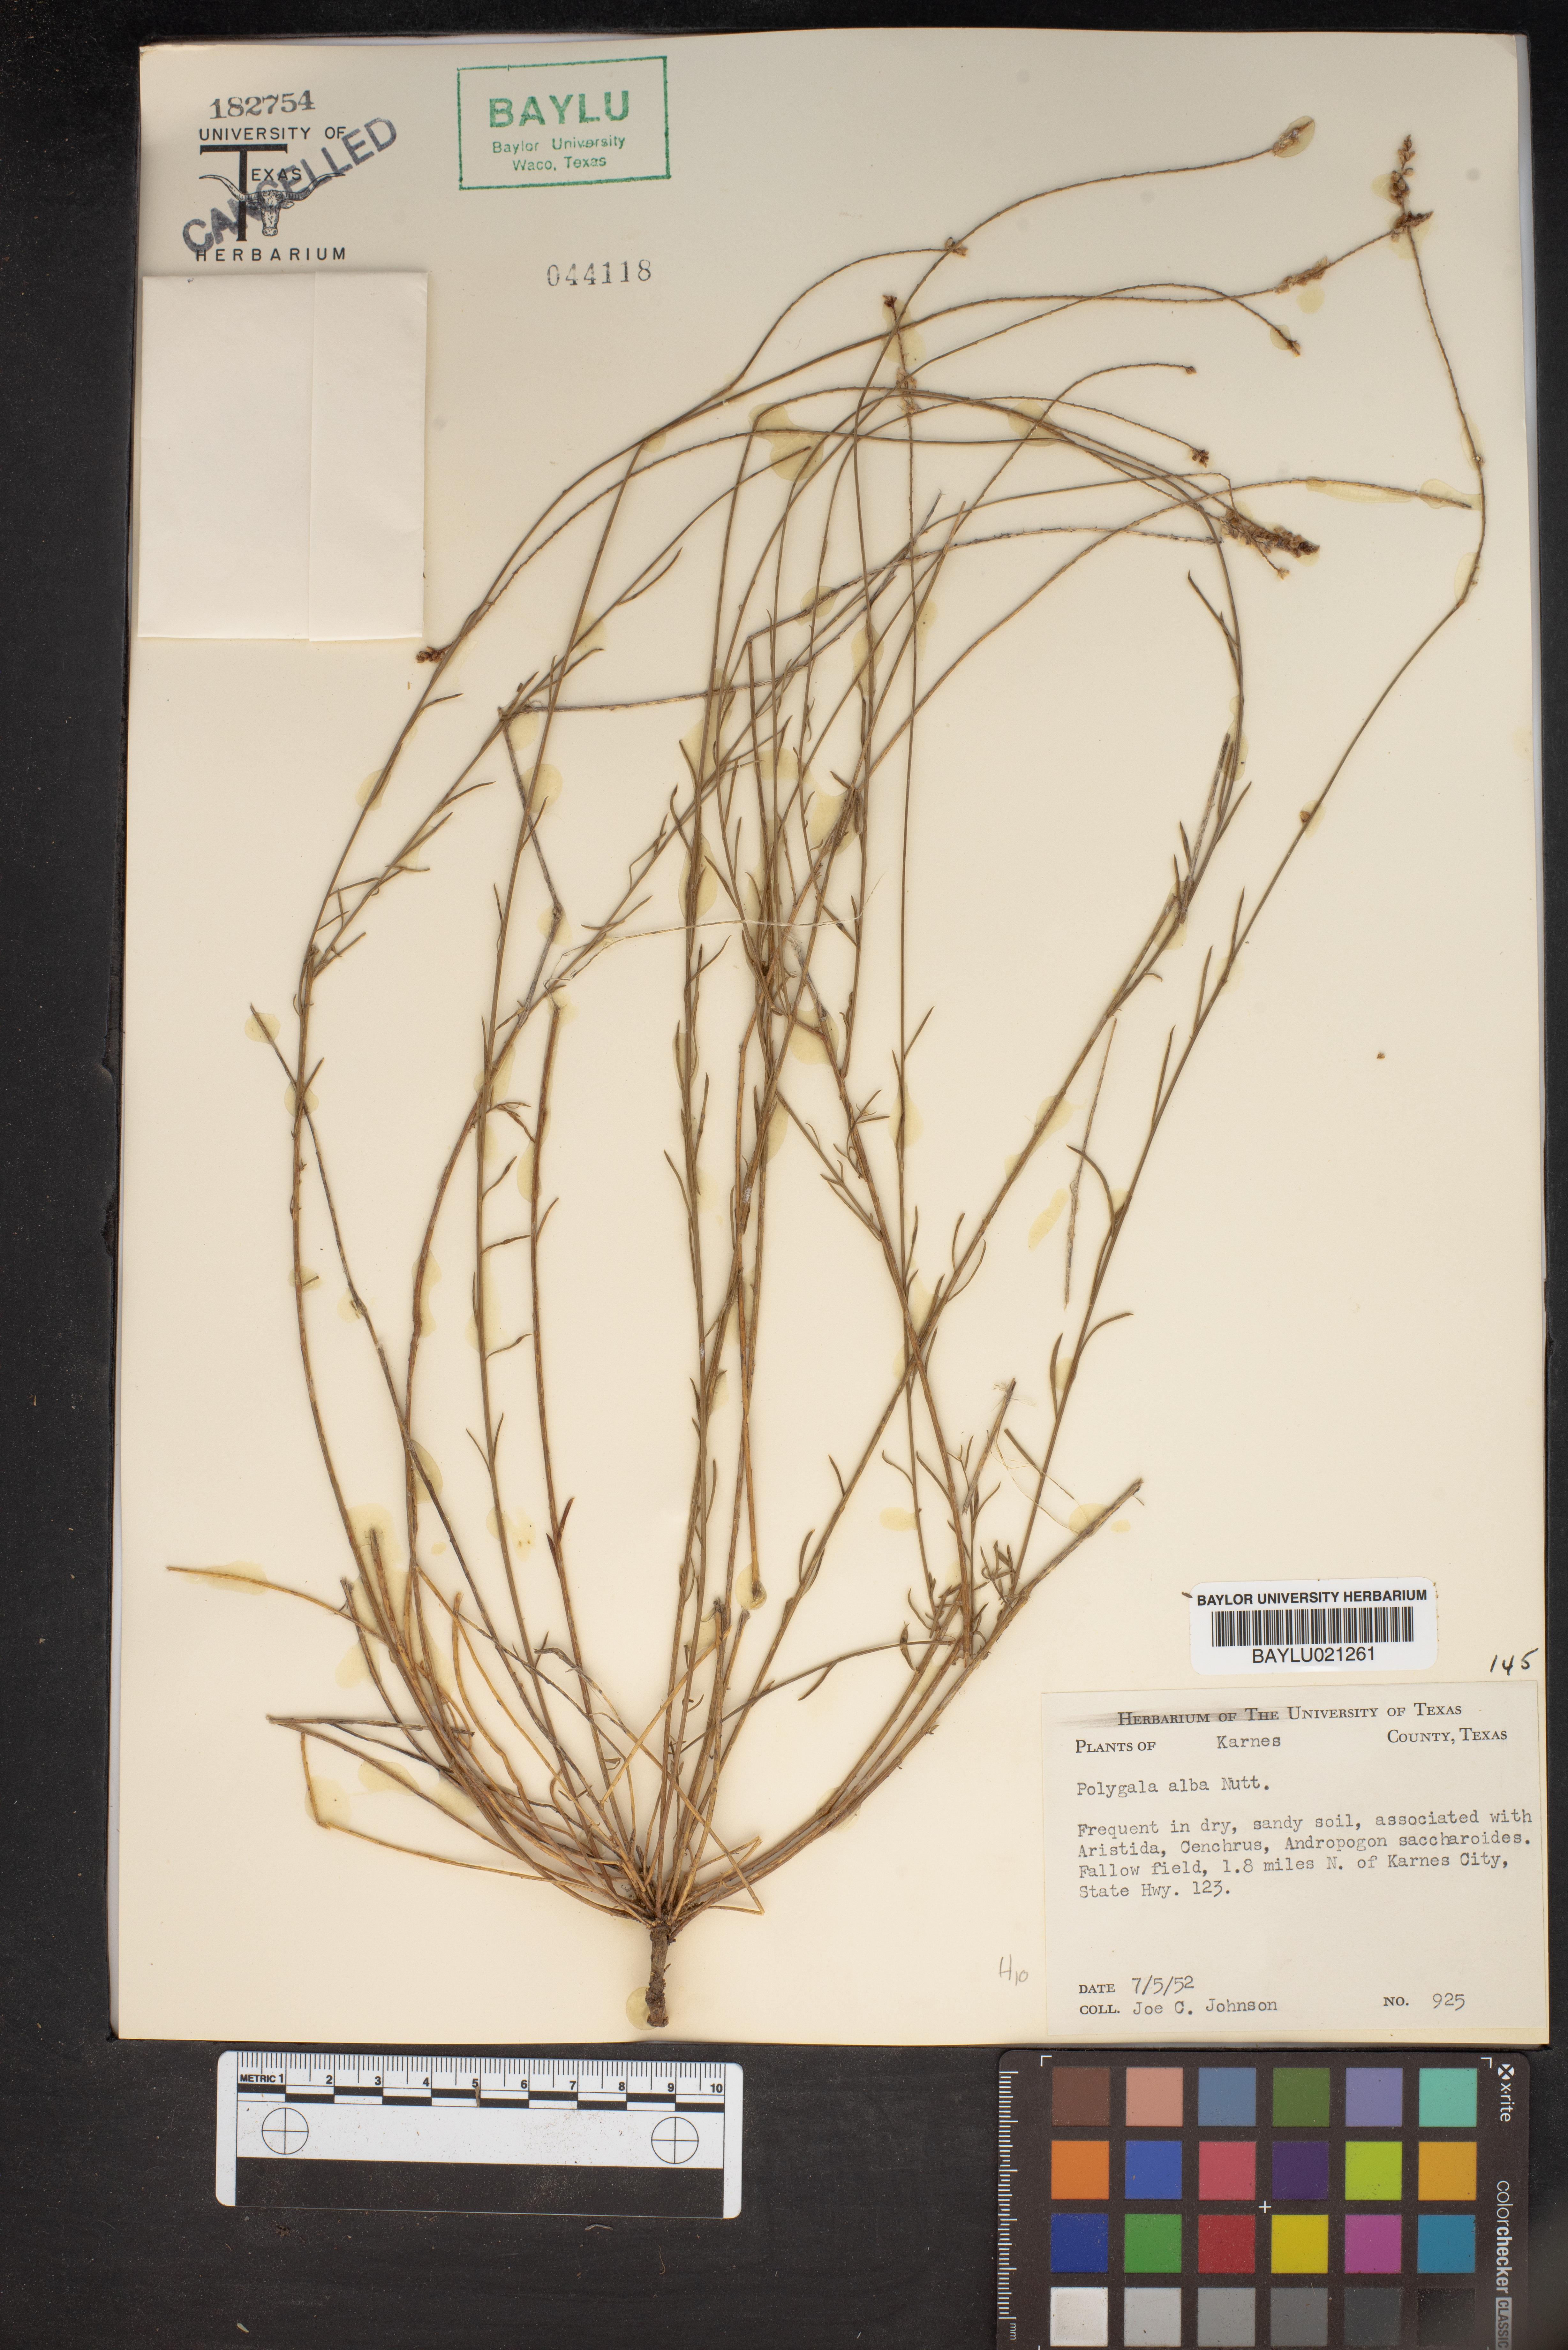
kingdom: Plantae
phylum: Tracheophyta
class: Magnoliopsida
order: Fabales
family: Polygalaceae
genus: Polygala
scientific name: Polygala alba
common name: White milkwort
